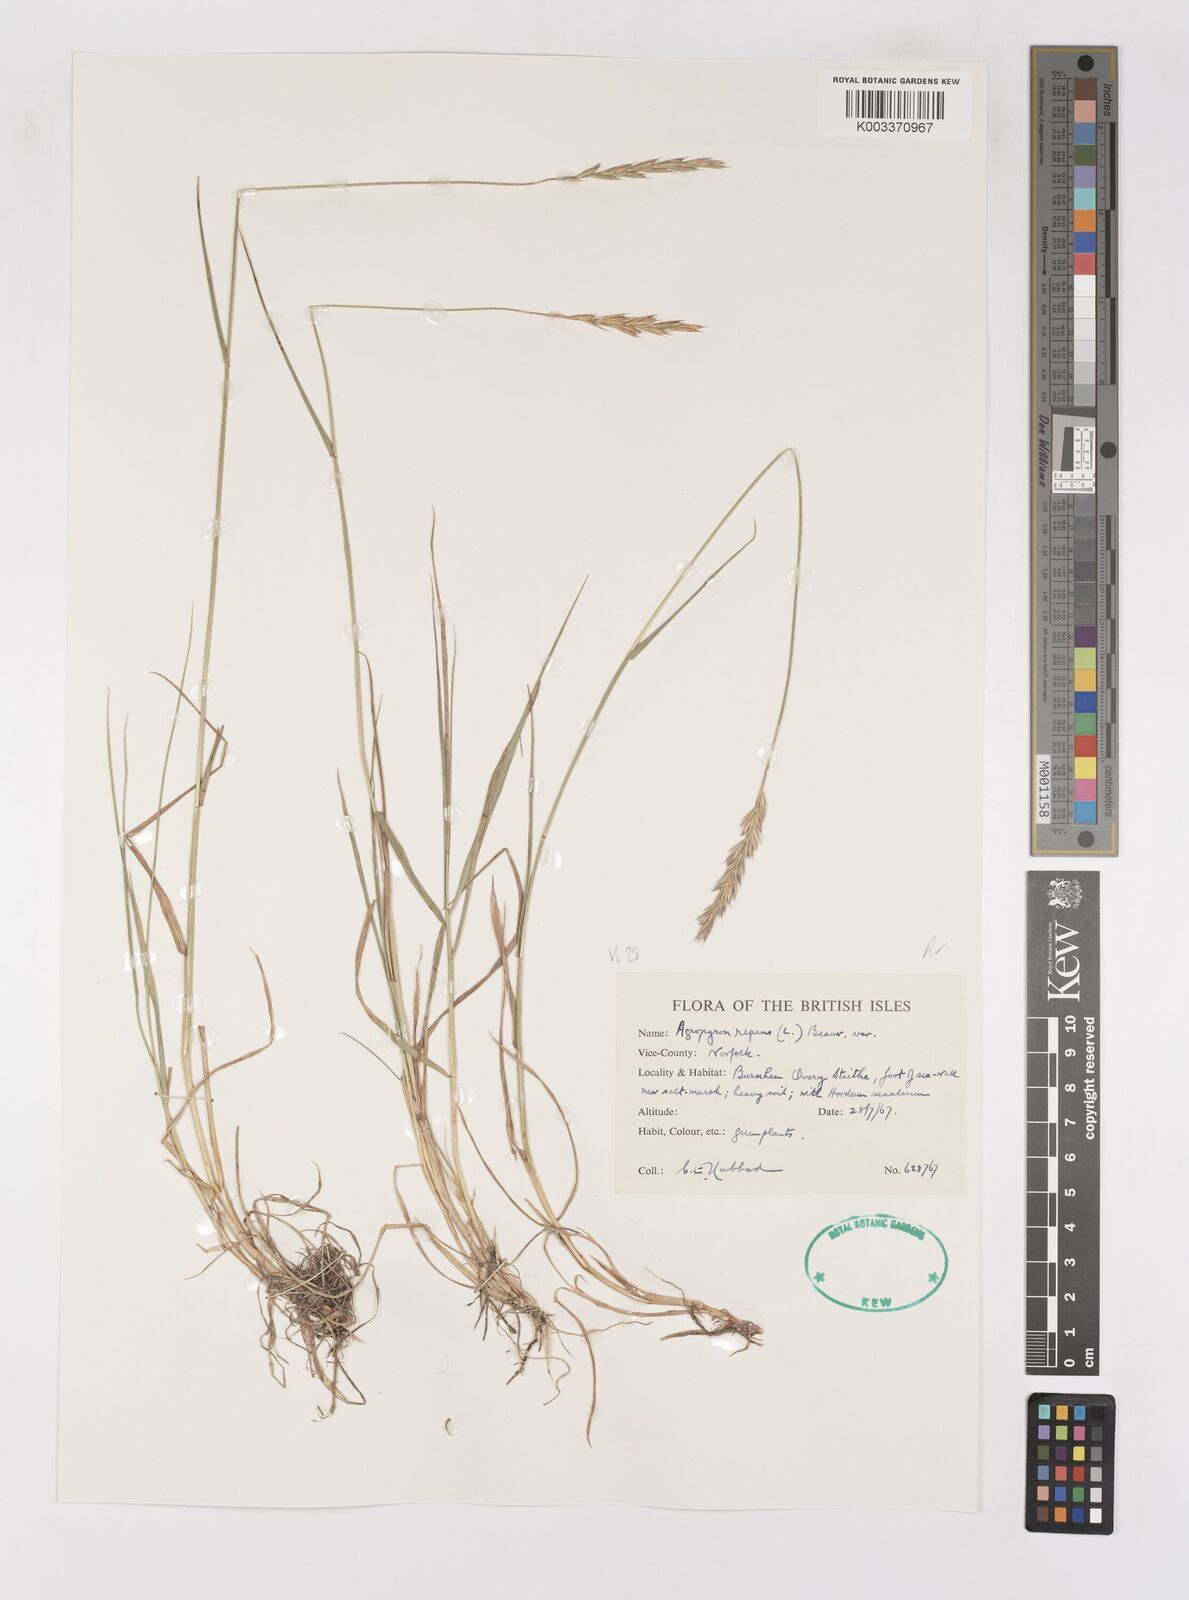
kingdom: Plantae
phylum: Tracheophyta
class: Liliopsida
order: Poales
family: Poaceae
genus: Elymus
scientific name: Elymus repens
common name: Quackgrass
